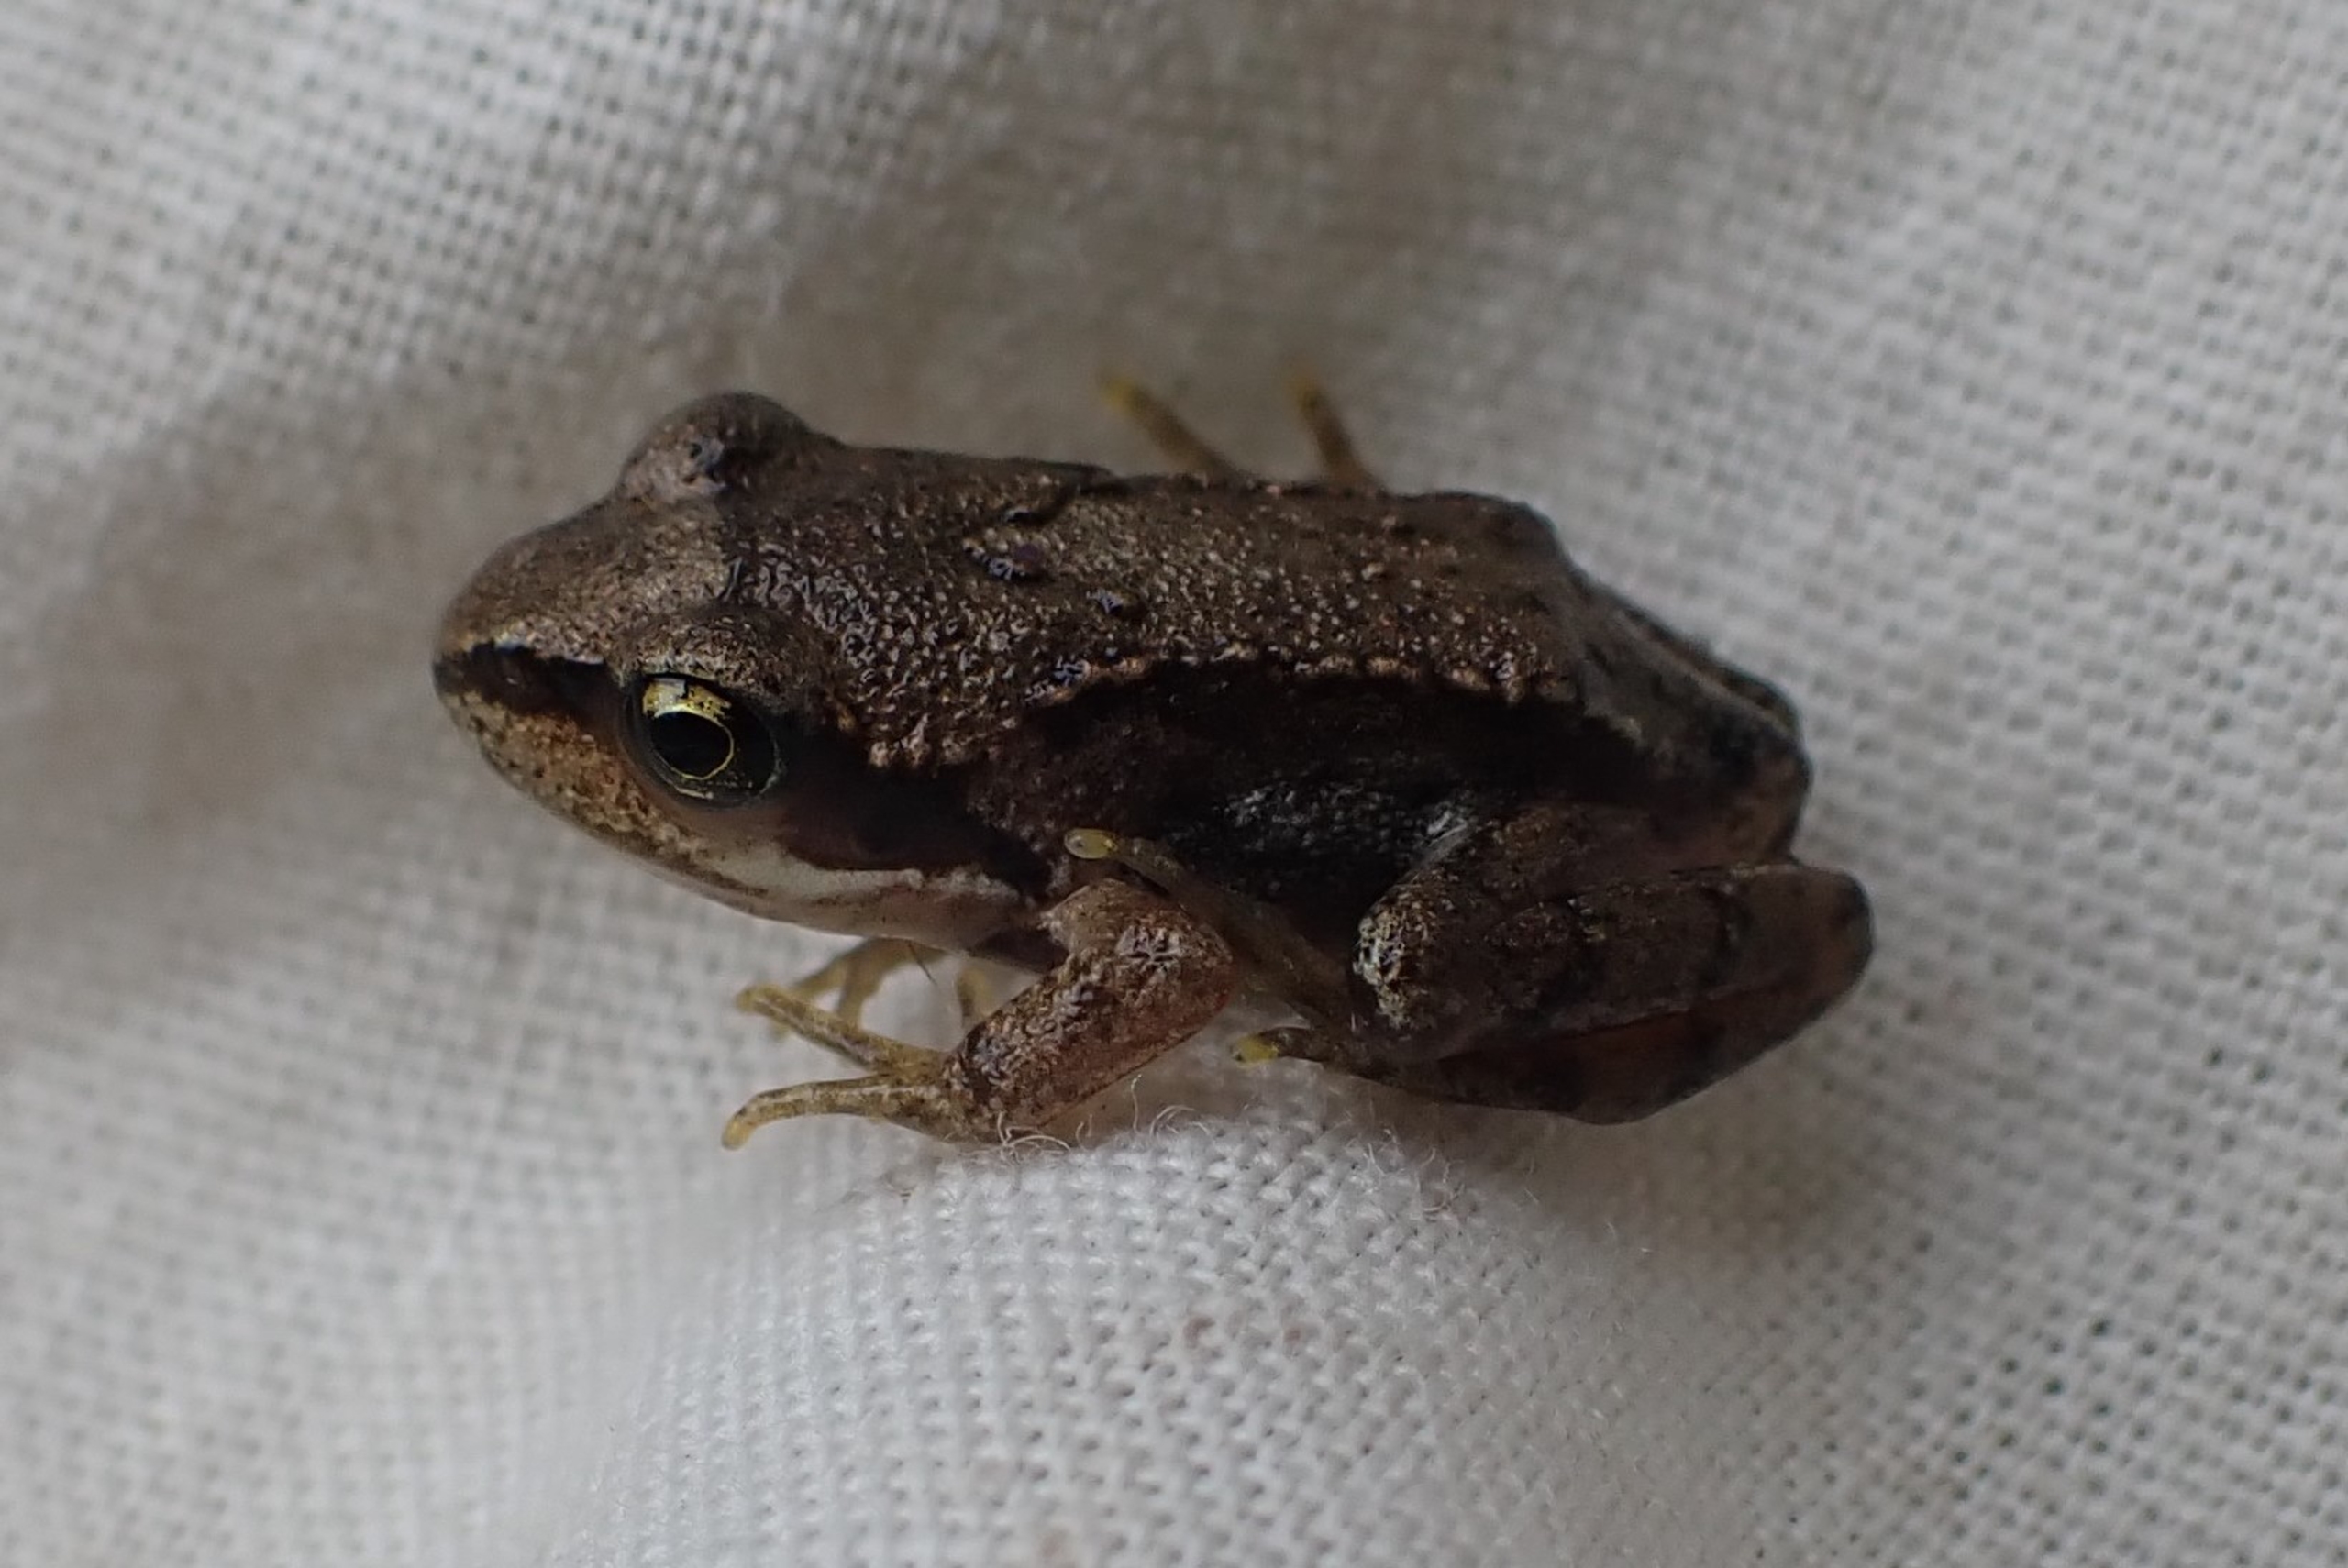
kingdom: Animalia
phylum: Chordata
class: Amphibia
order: Anura
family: Ranidae
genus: Rana
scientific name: Rana temporaria
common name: Butsnudet frø
